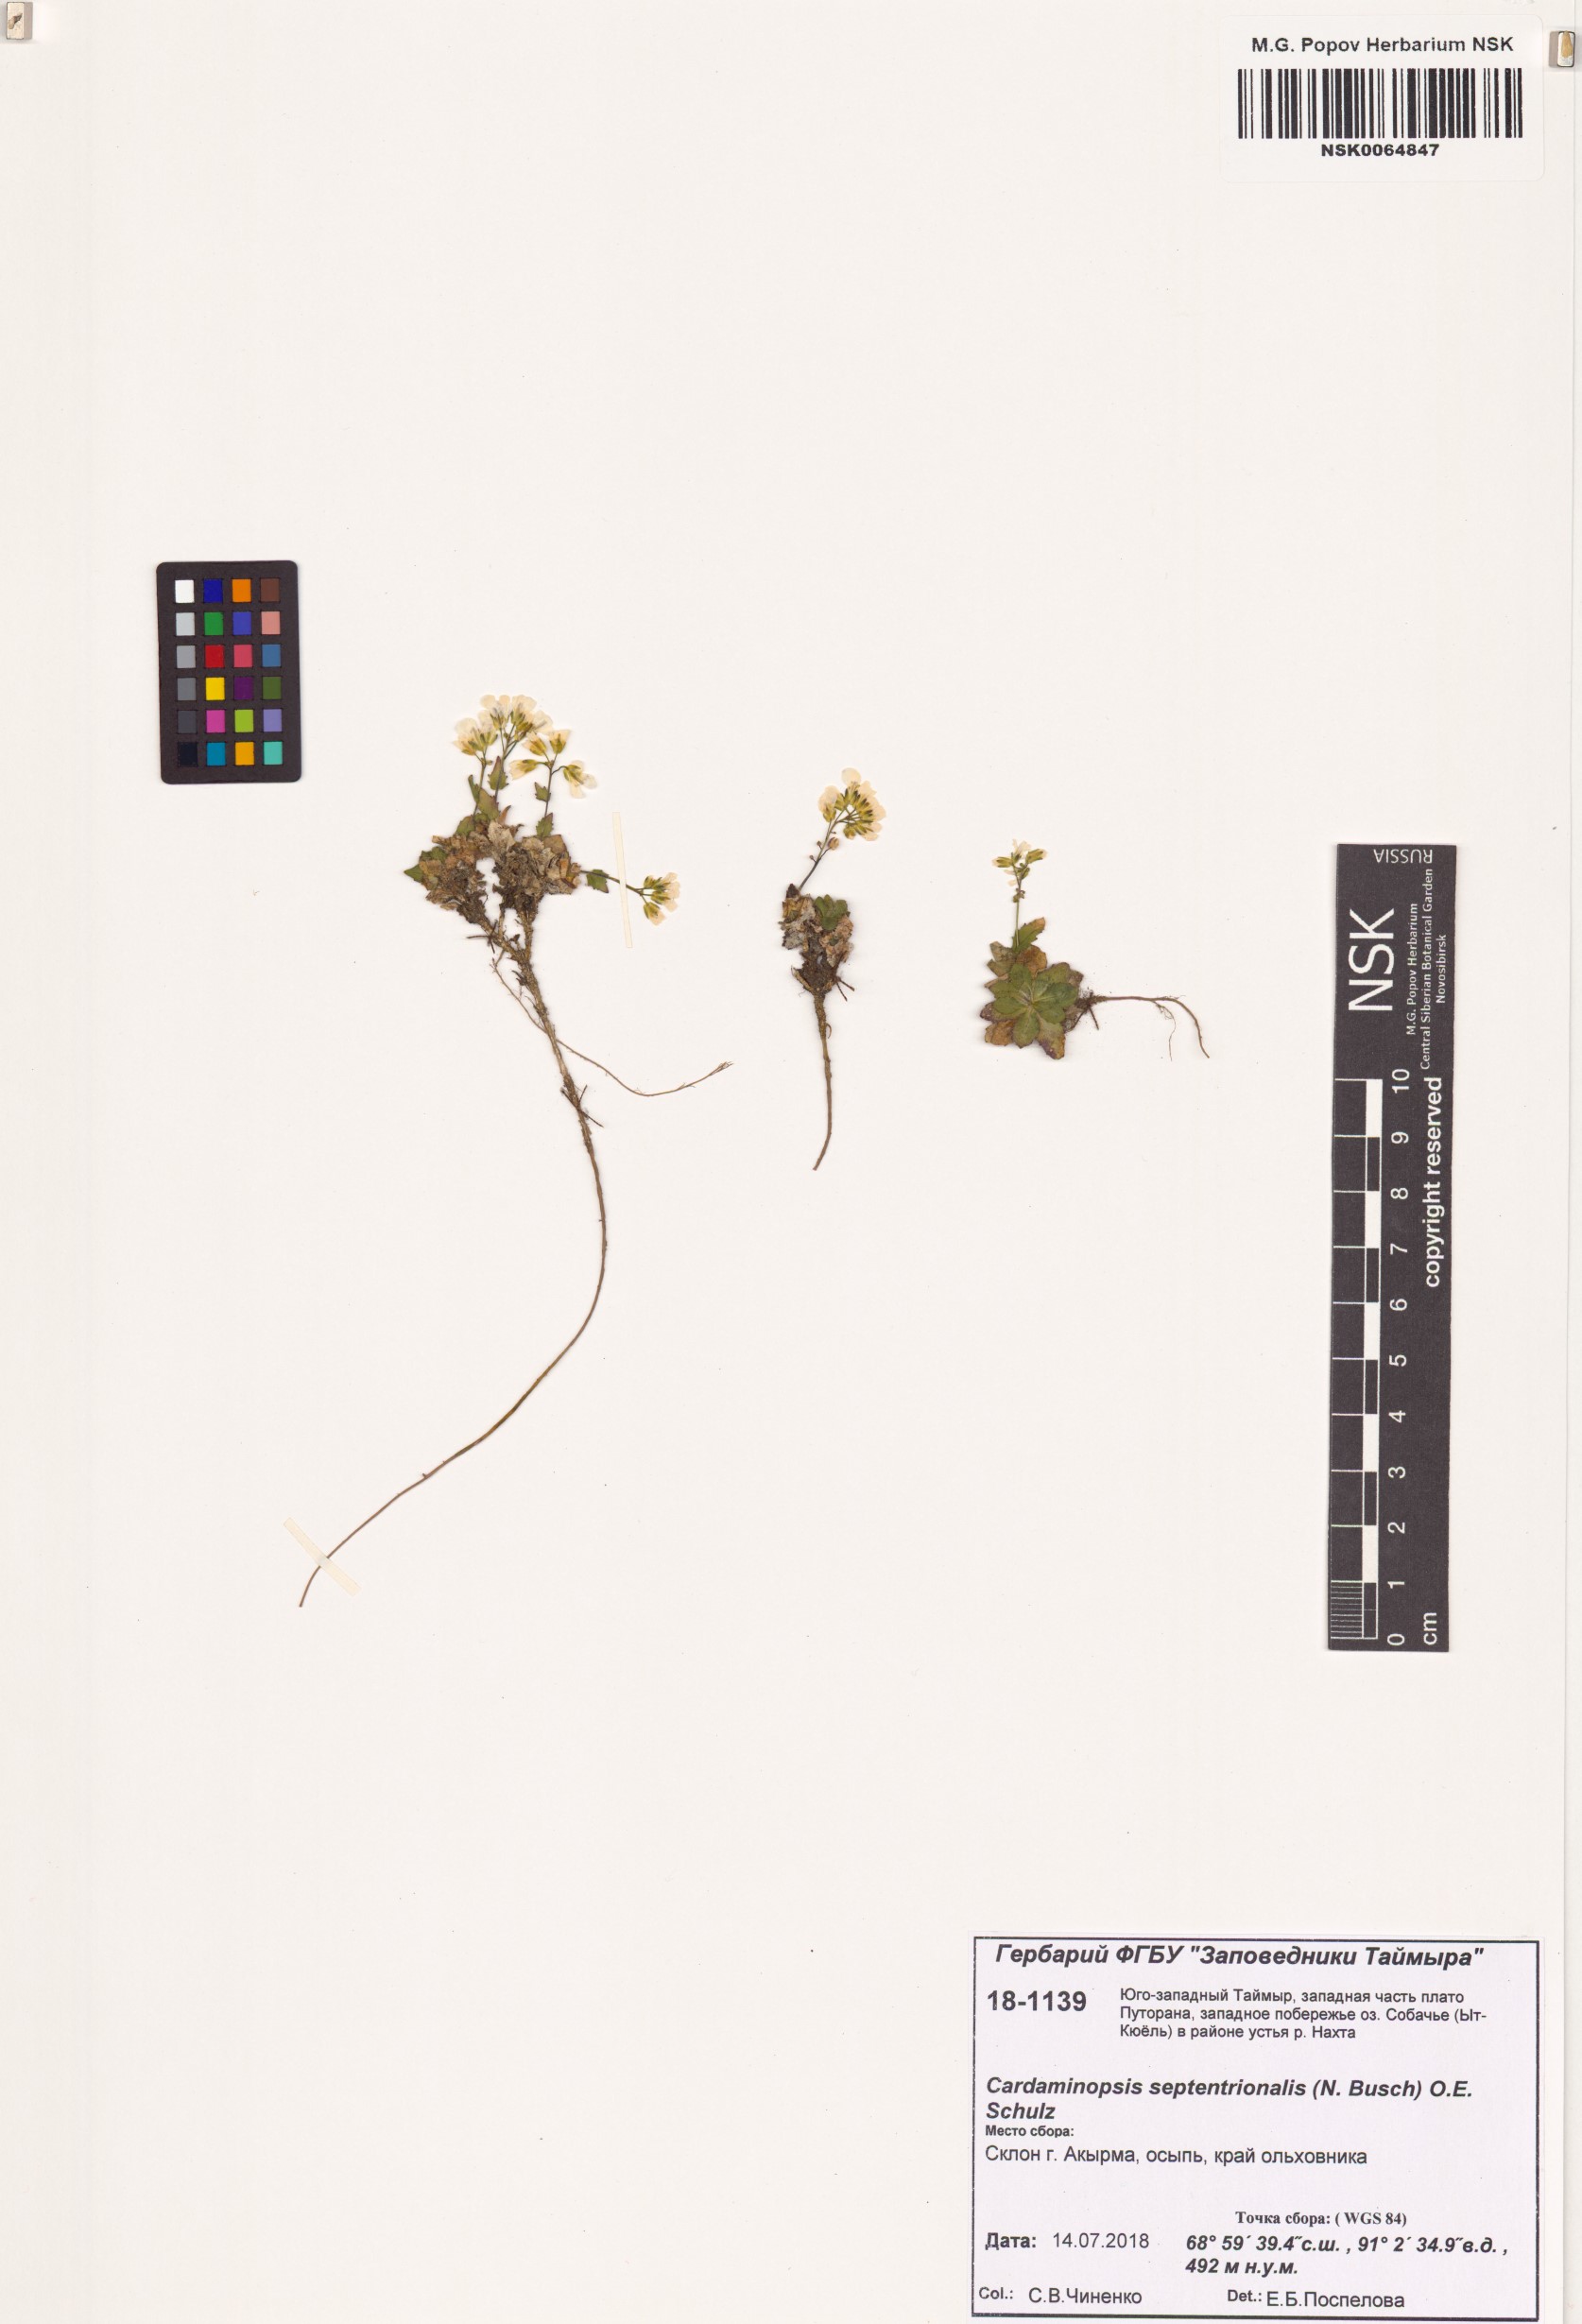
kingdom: Plantae
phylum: Tracheophyta
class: Magnoliopsida
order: Brassicales
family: Brassicaceae
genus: Arabidopsis
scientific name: Arabidopsis lyrata
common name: Lyrate rockcress
